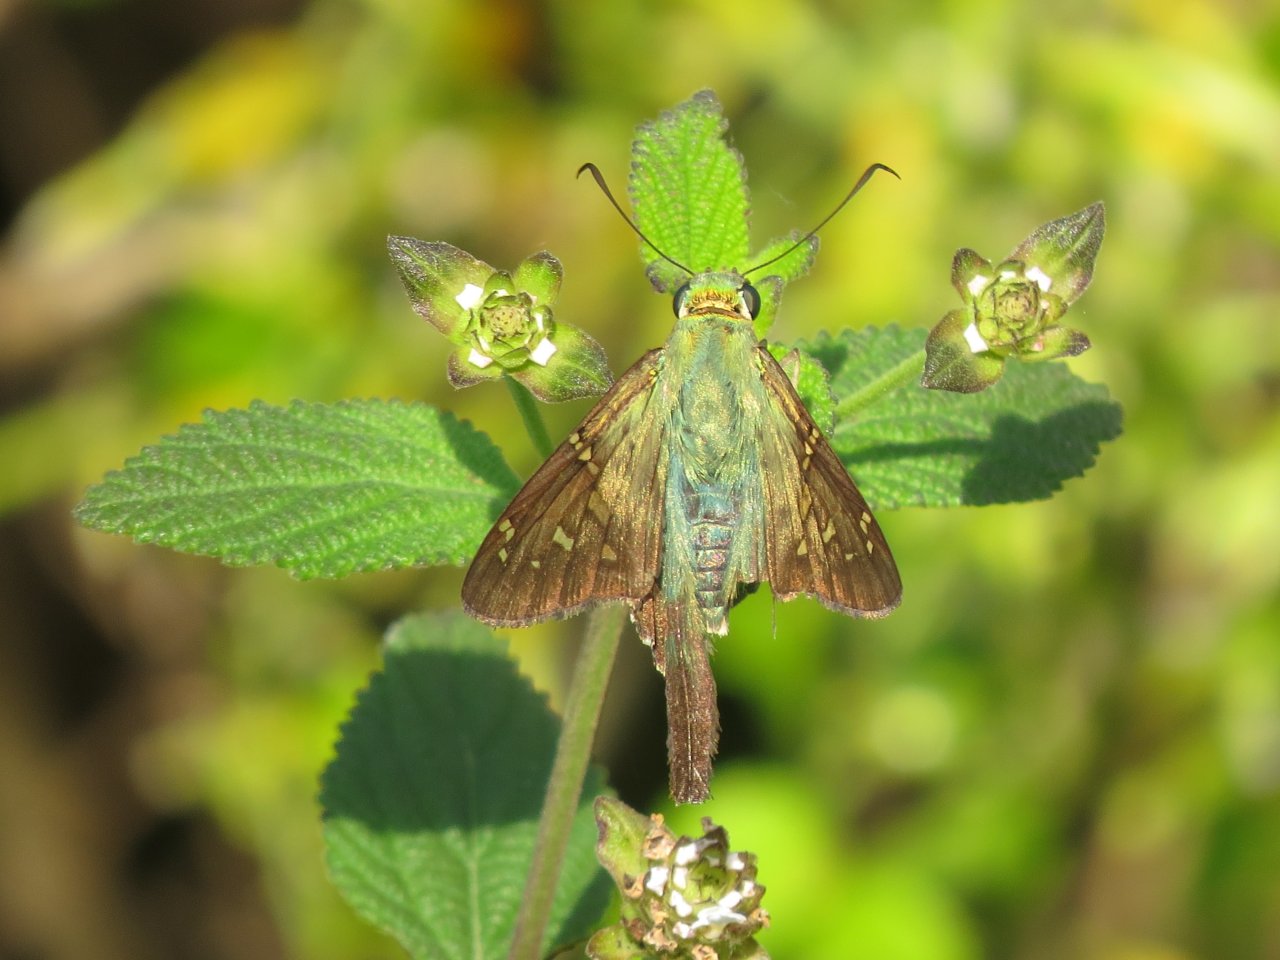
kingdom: Animalia
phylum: Arthropoda
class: Insecta
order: Lepidoptera
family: Hesperiidae
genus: Urbanus
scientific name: Urbanus proteus
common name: Long-tailed Skipper
